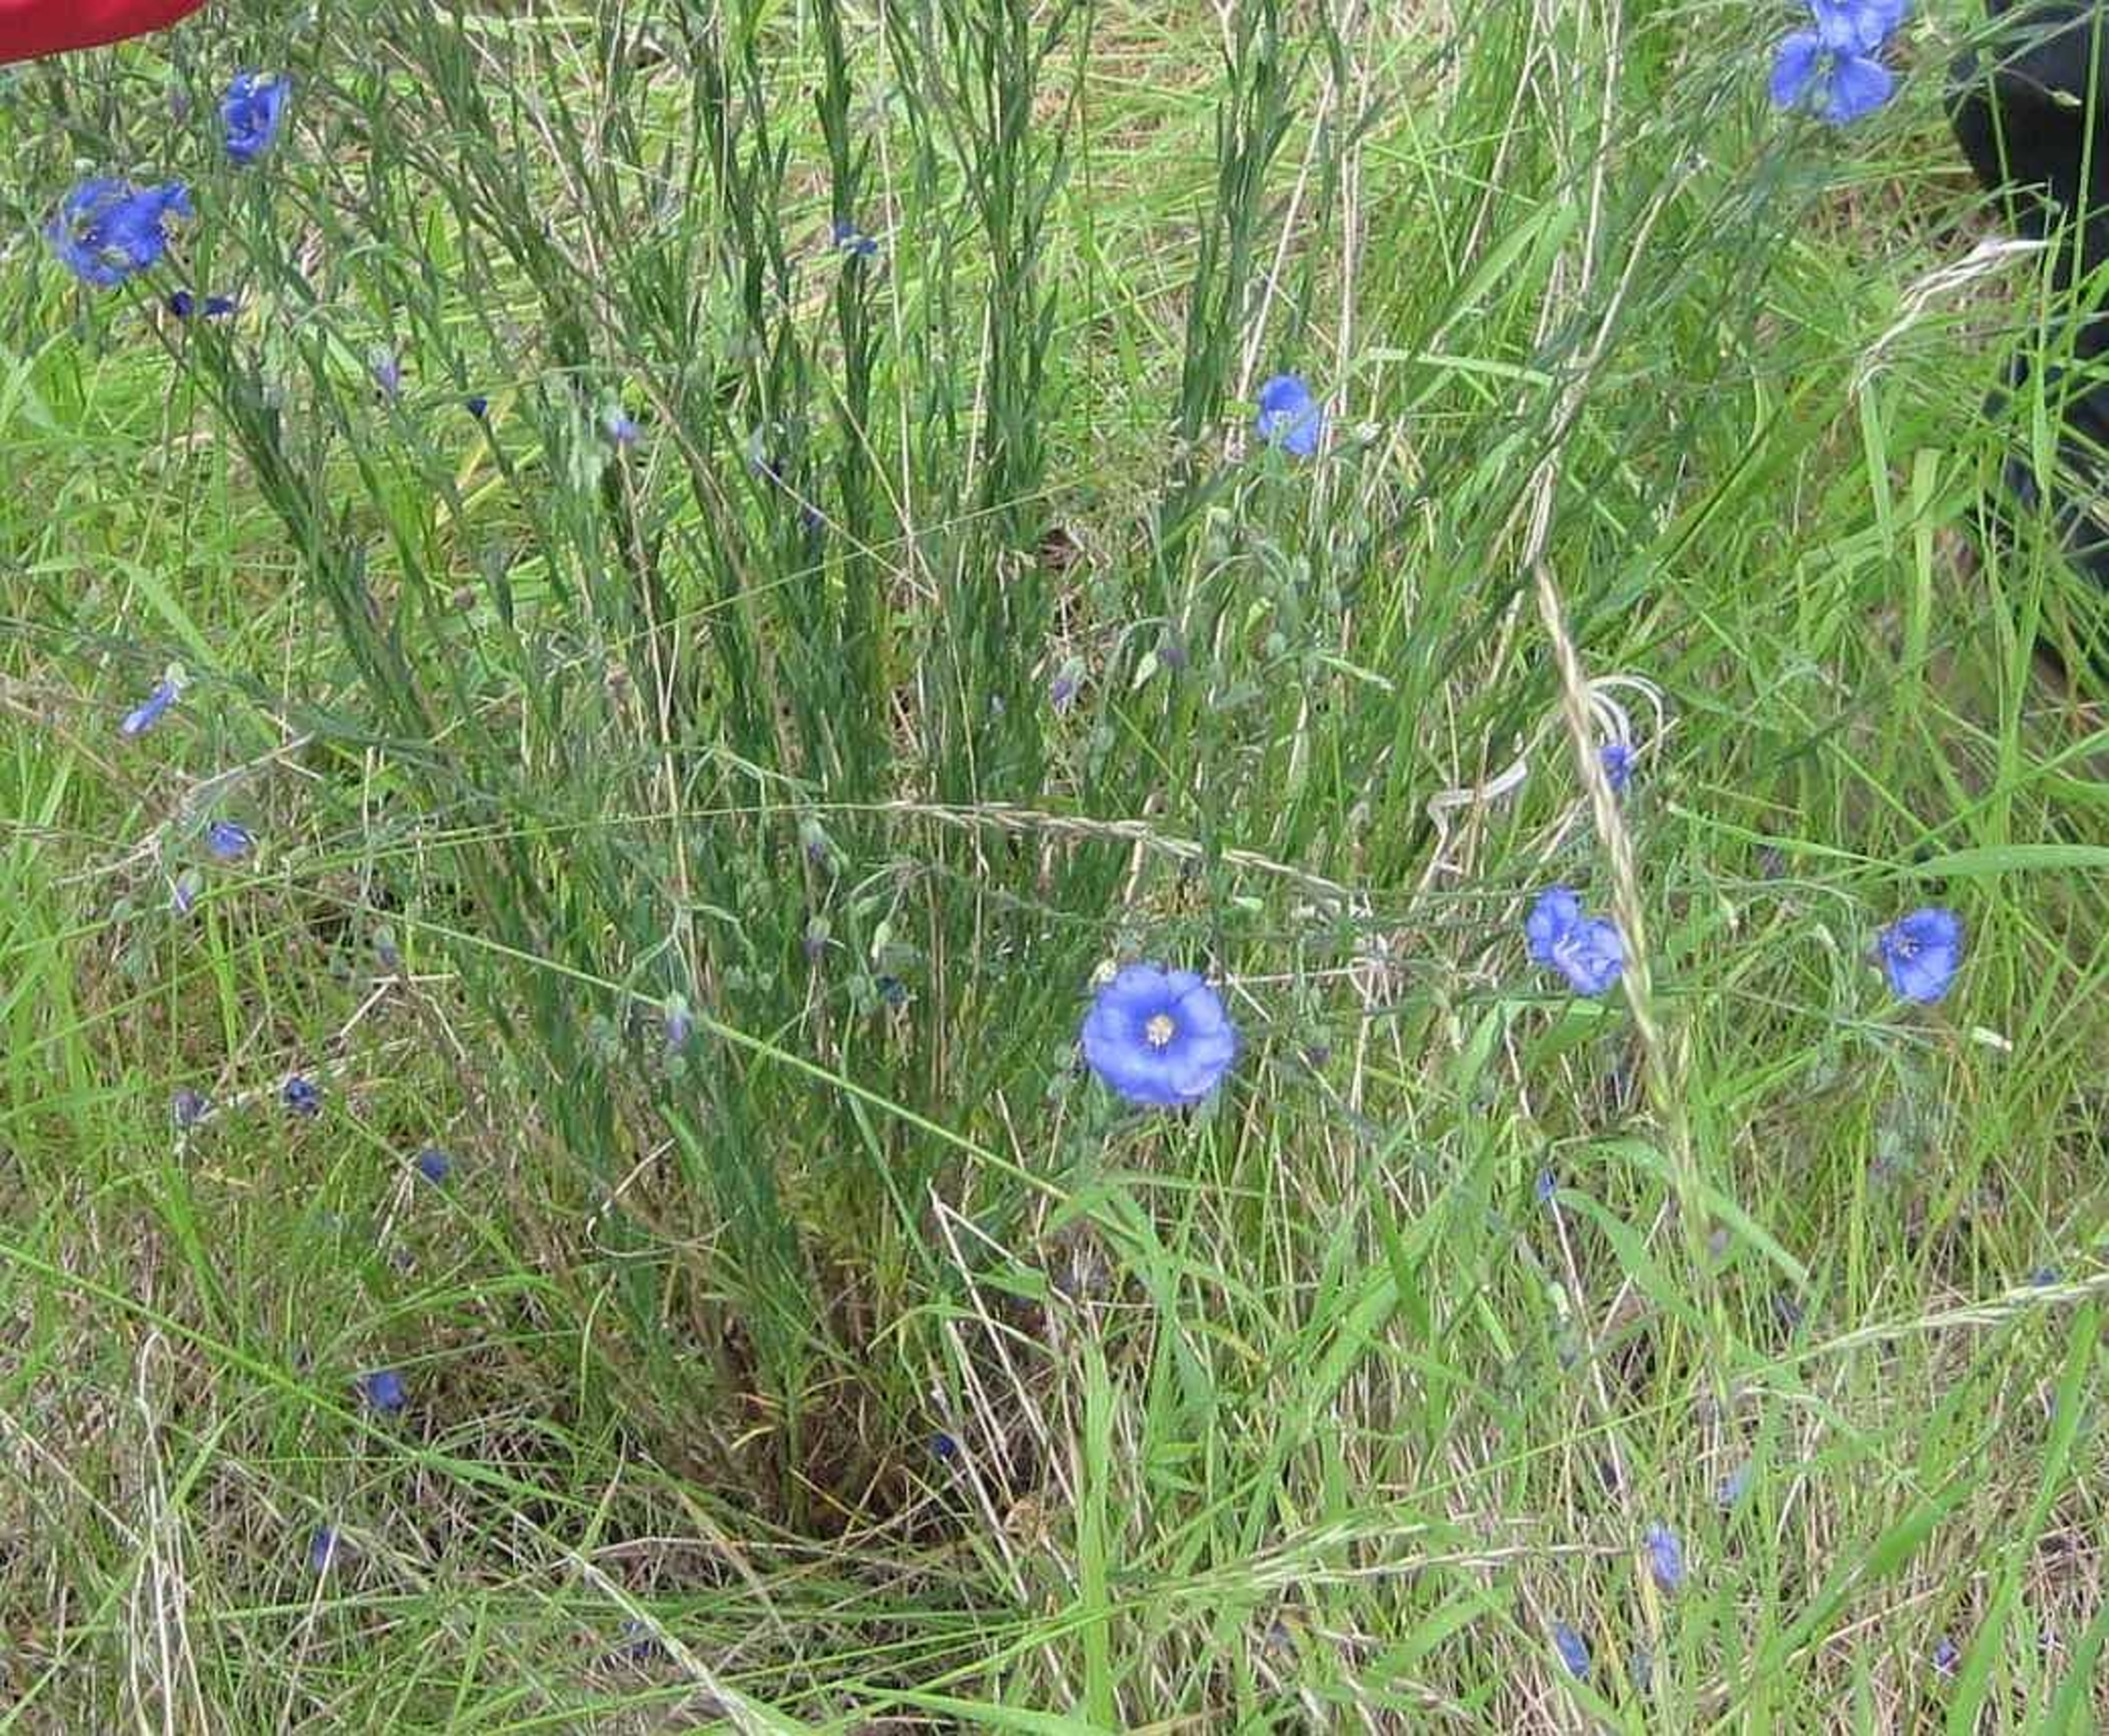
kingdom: Plantae
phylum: Tracheophyta
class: Magnoliopsida
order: Malpighiales
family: Linaceae
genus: Linum
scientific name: Linum austriacum
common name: Østrigsk hør
